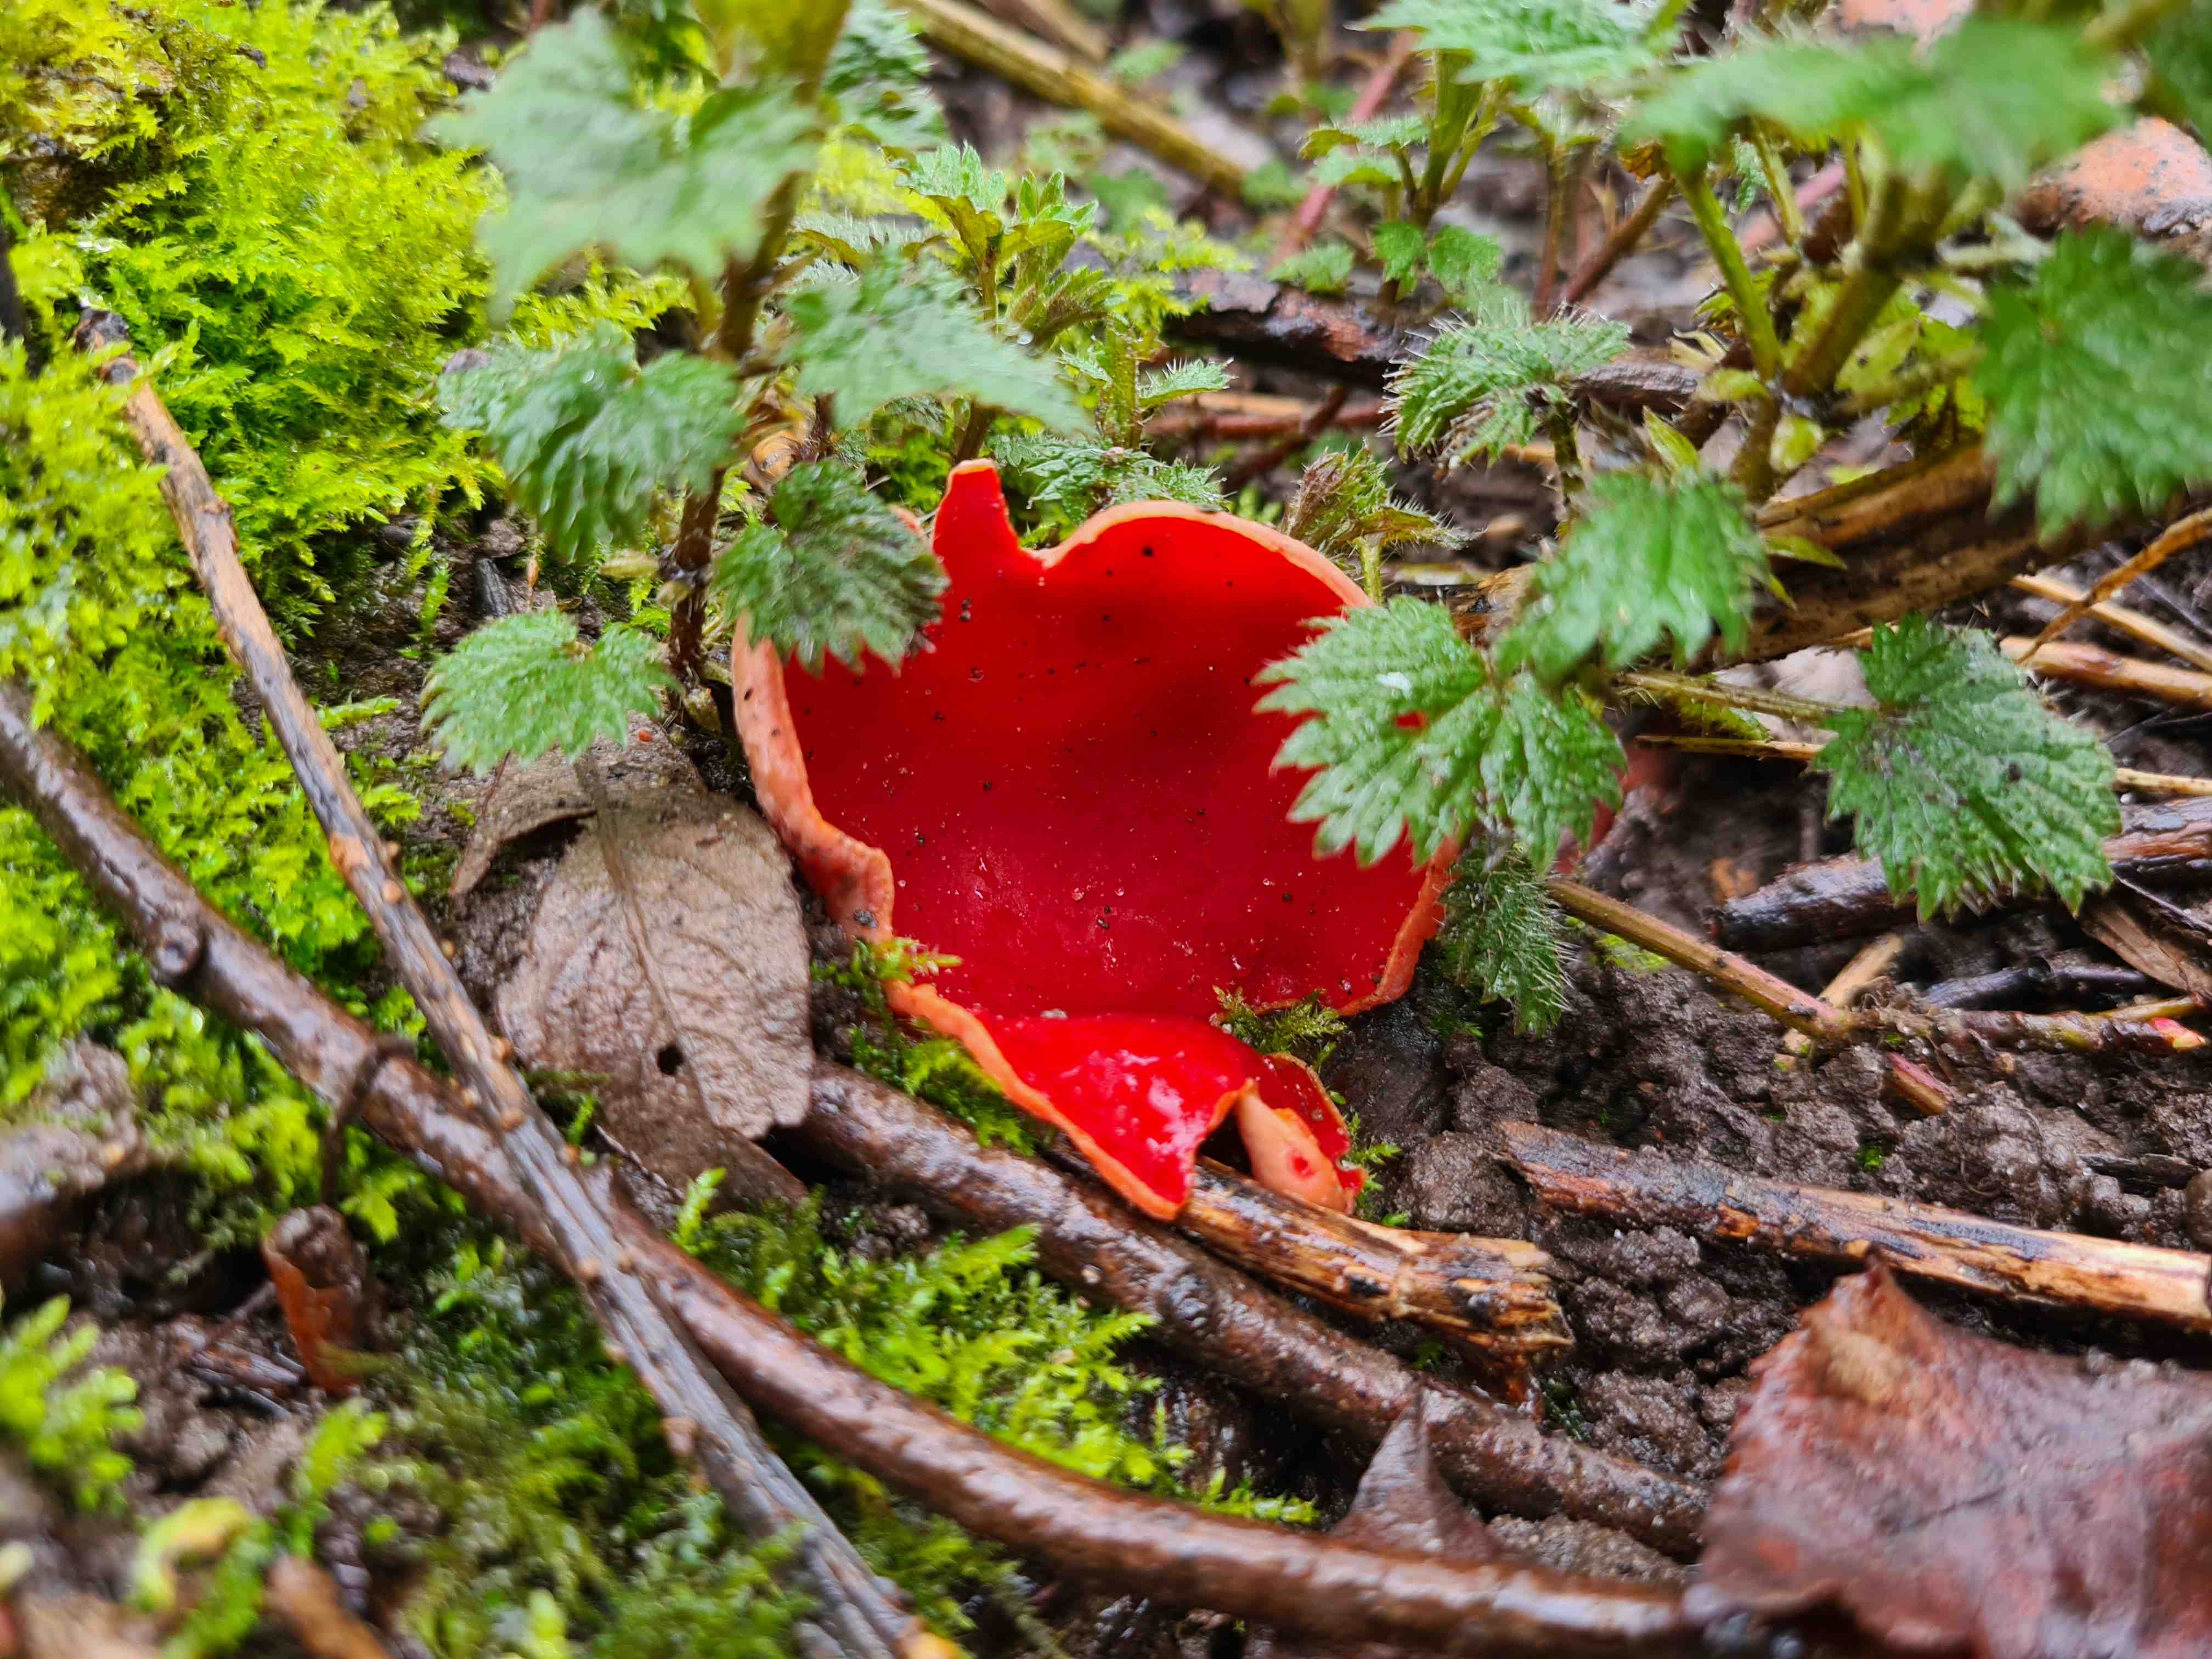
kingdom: Fungi
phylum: Ascomycota
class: Pezizomycetes
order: Pezizales
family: Sarcoscyphaceae
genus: Sarcoscypha
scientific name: Sarcoscypha austriaca
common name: krølhåret pragtbæger
